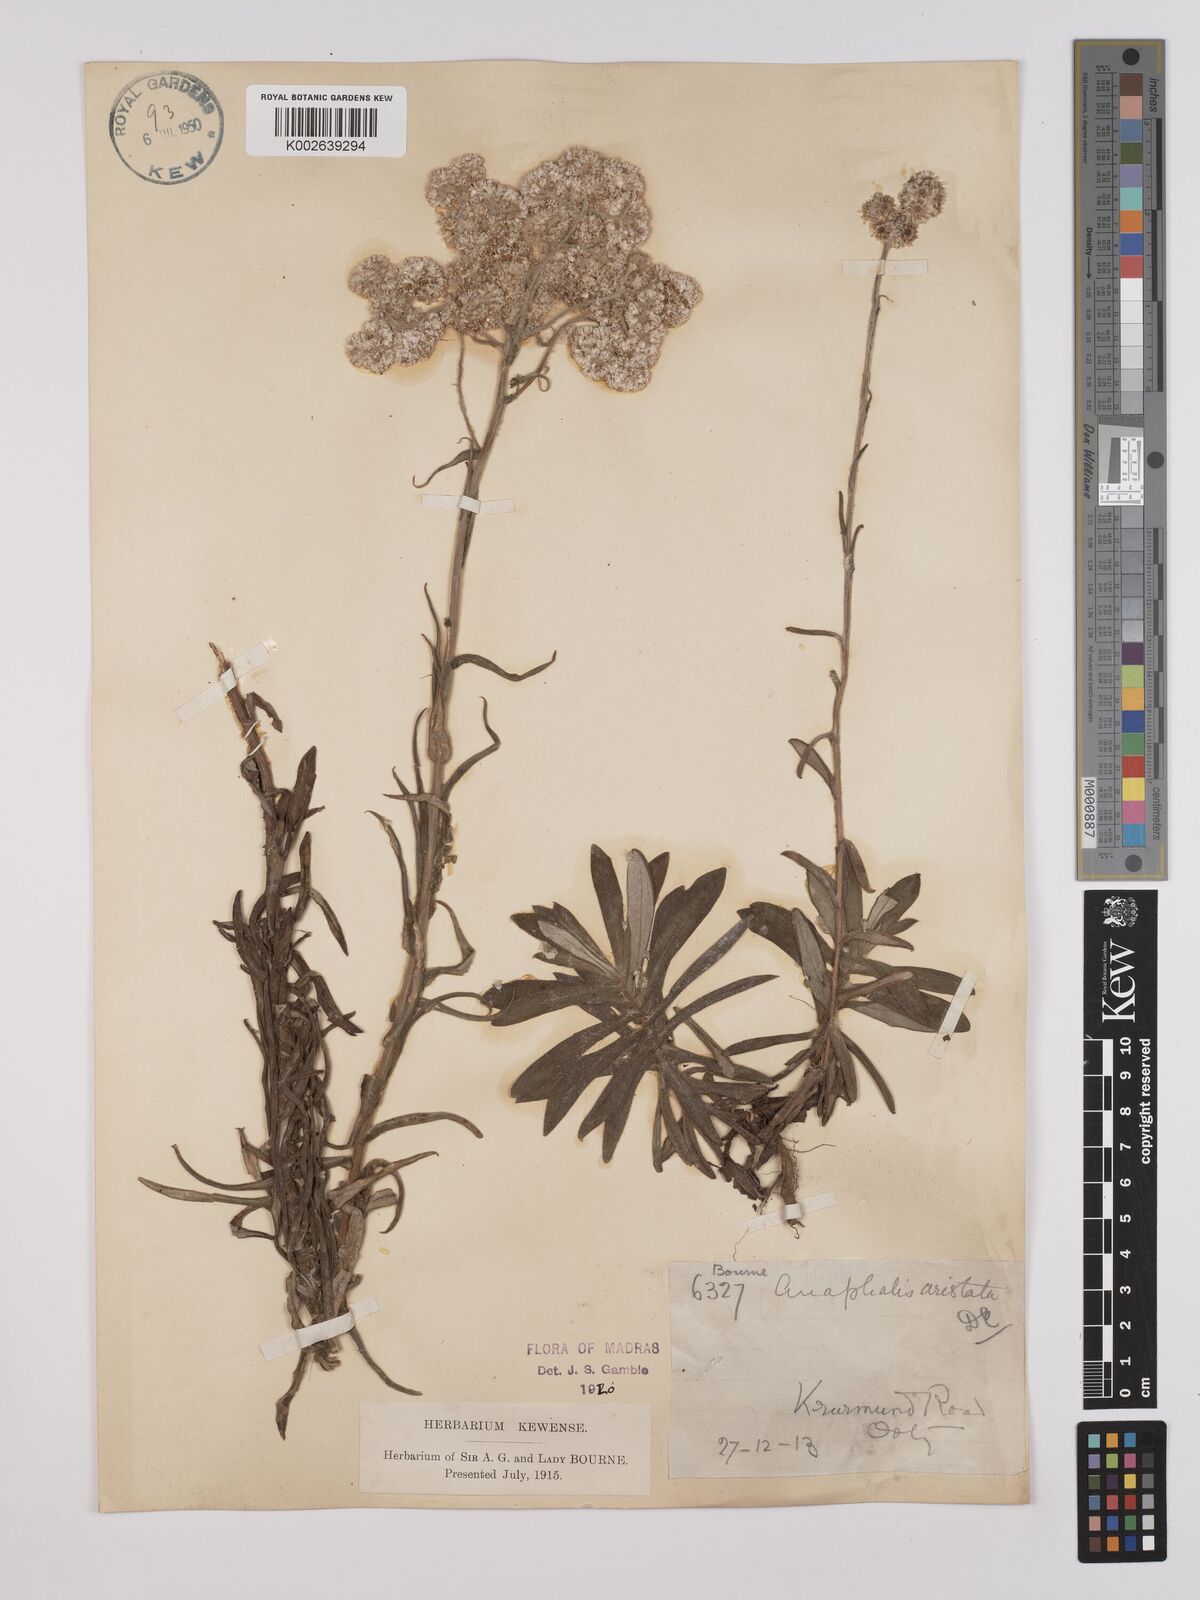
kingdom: Plantae
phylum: Tracheophyta
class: Magnoliopsida
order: Asterales
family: Asteraceae
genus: Anaphalis
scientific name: Anaphalis aristata
